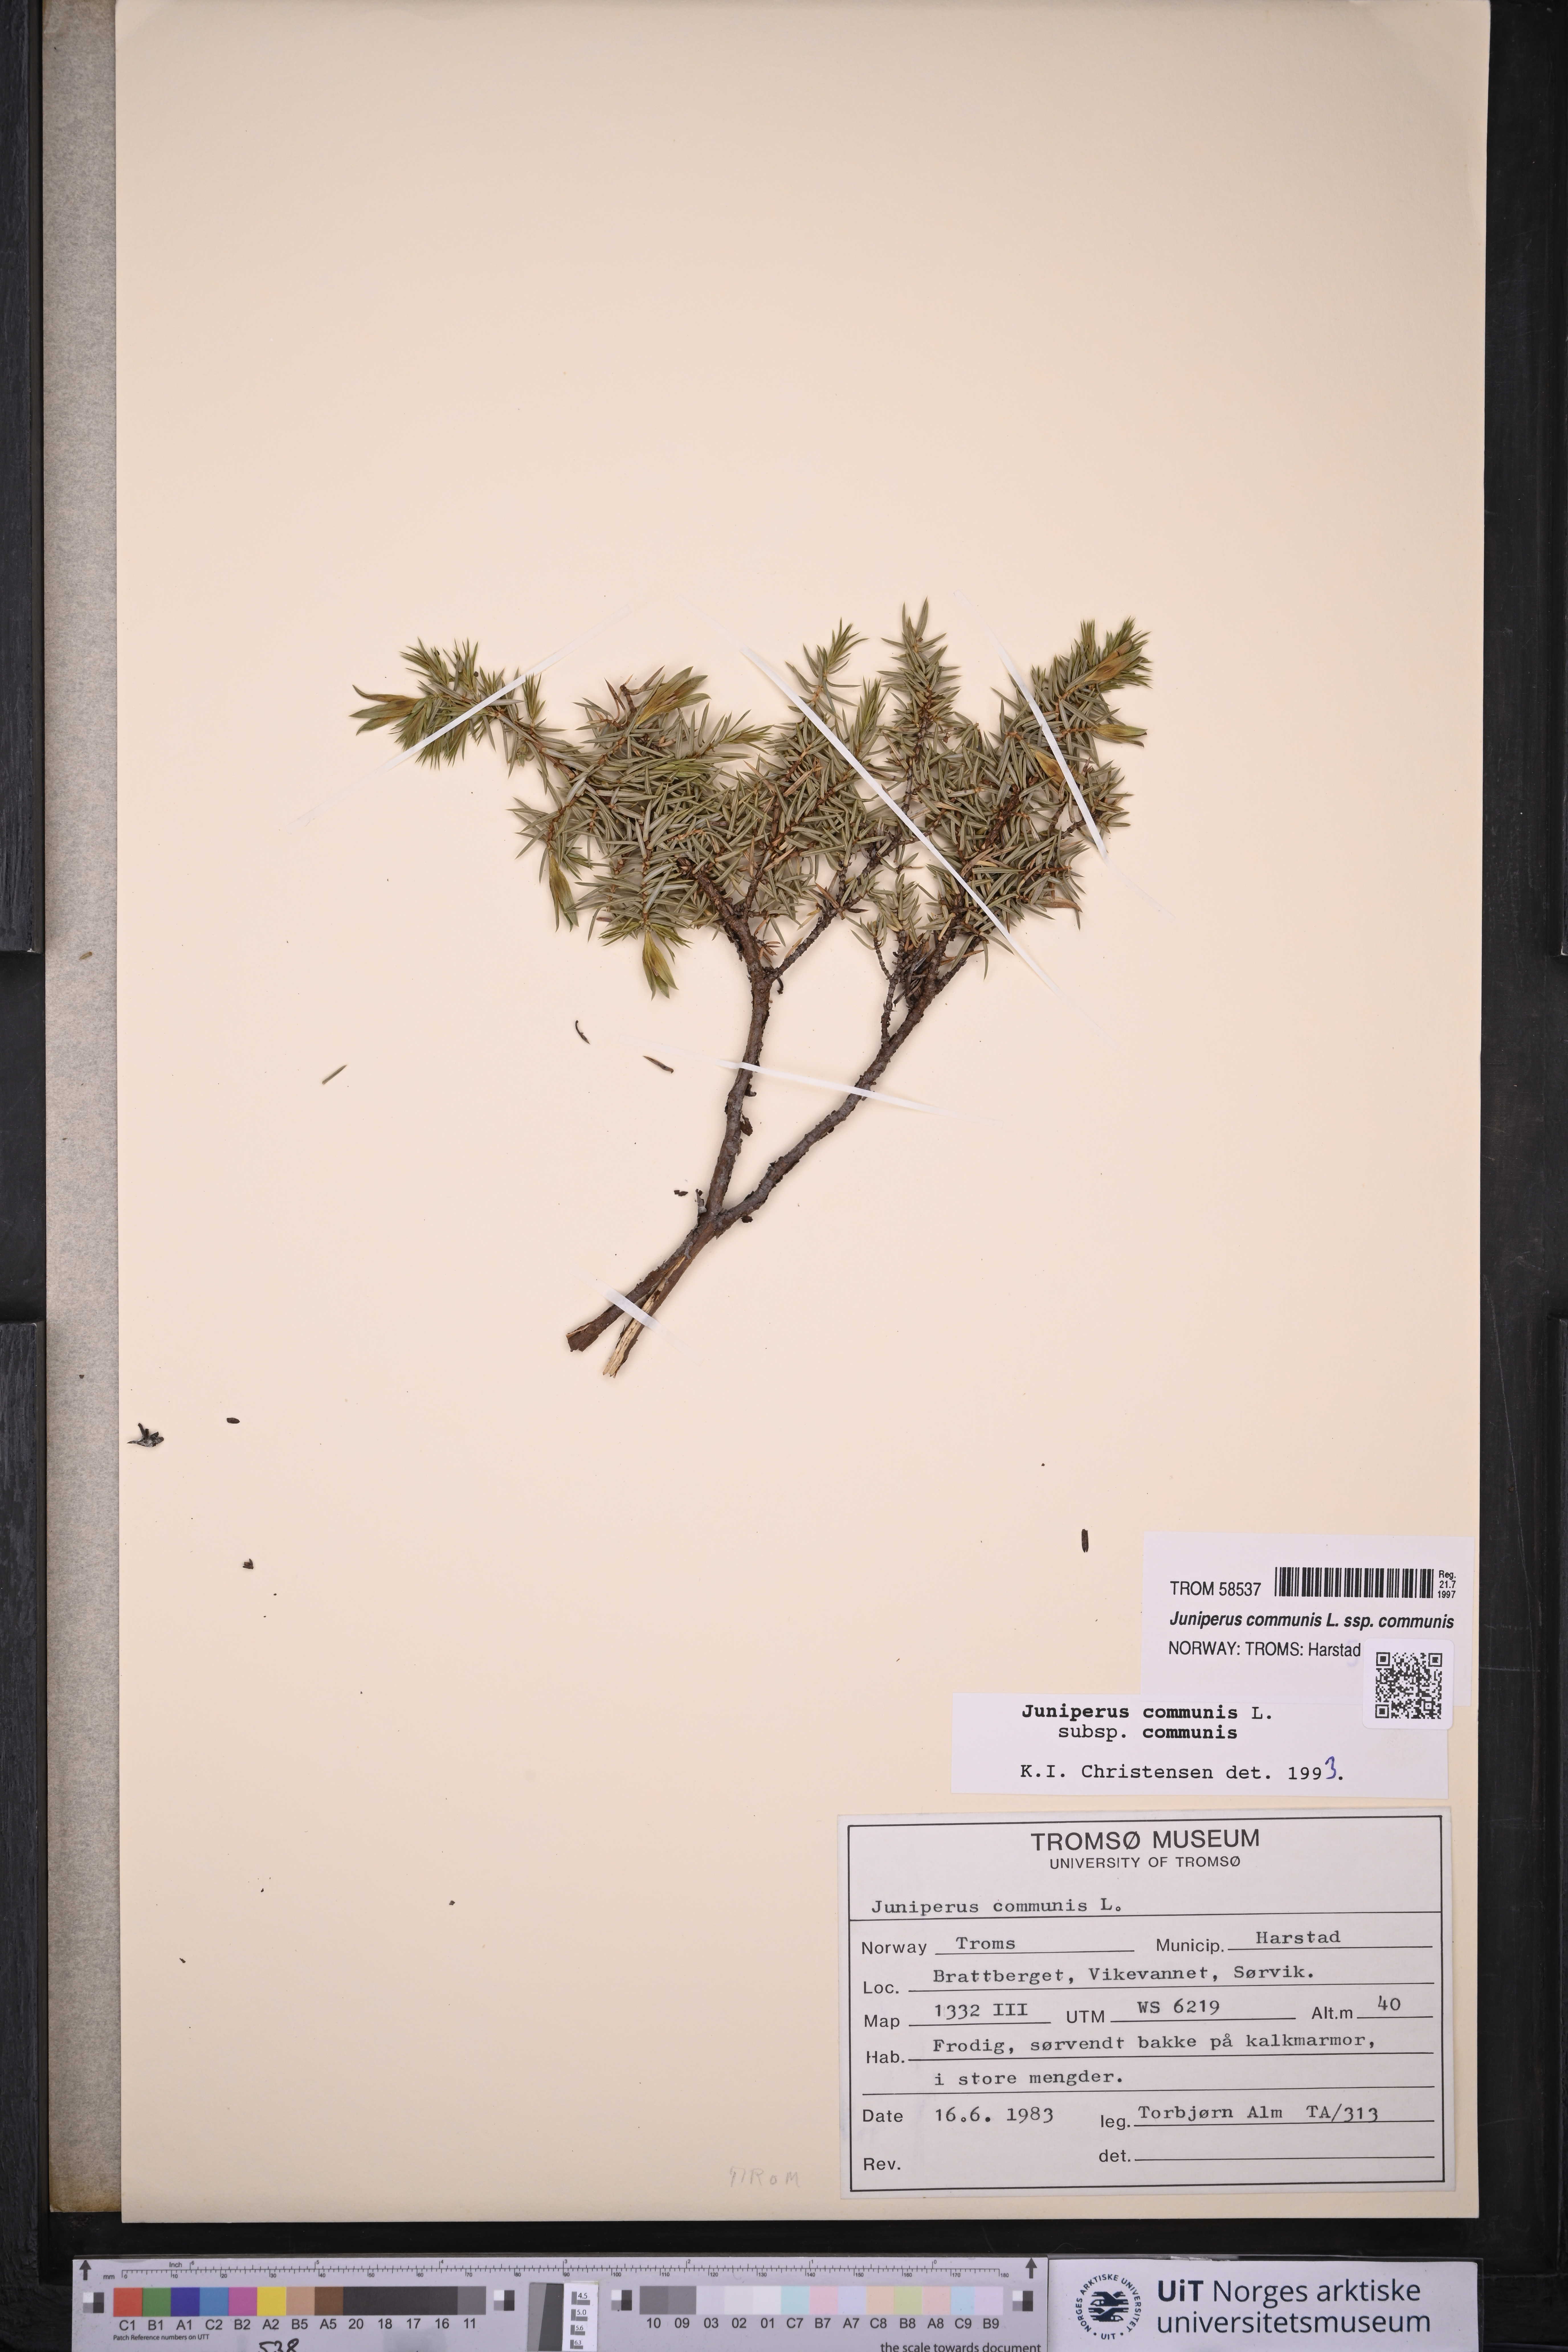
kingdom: Plantae
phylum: Tracheophyta
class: Pinopsida
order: Pinales
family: Cupressaceae
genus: Juniperus
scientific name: Juniperus communis
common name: Common juniper
